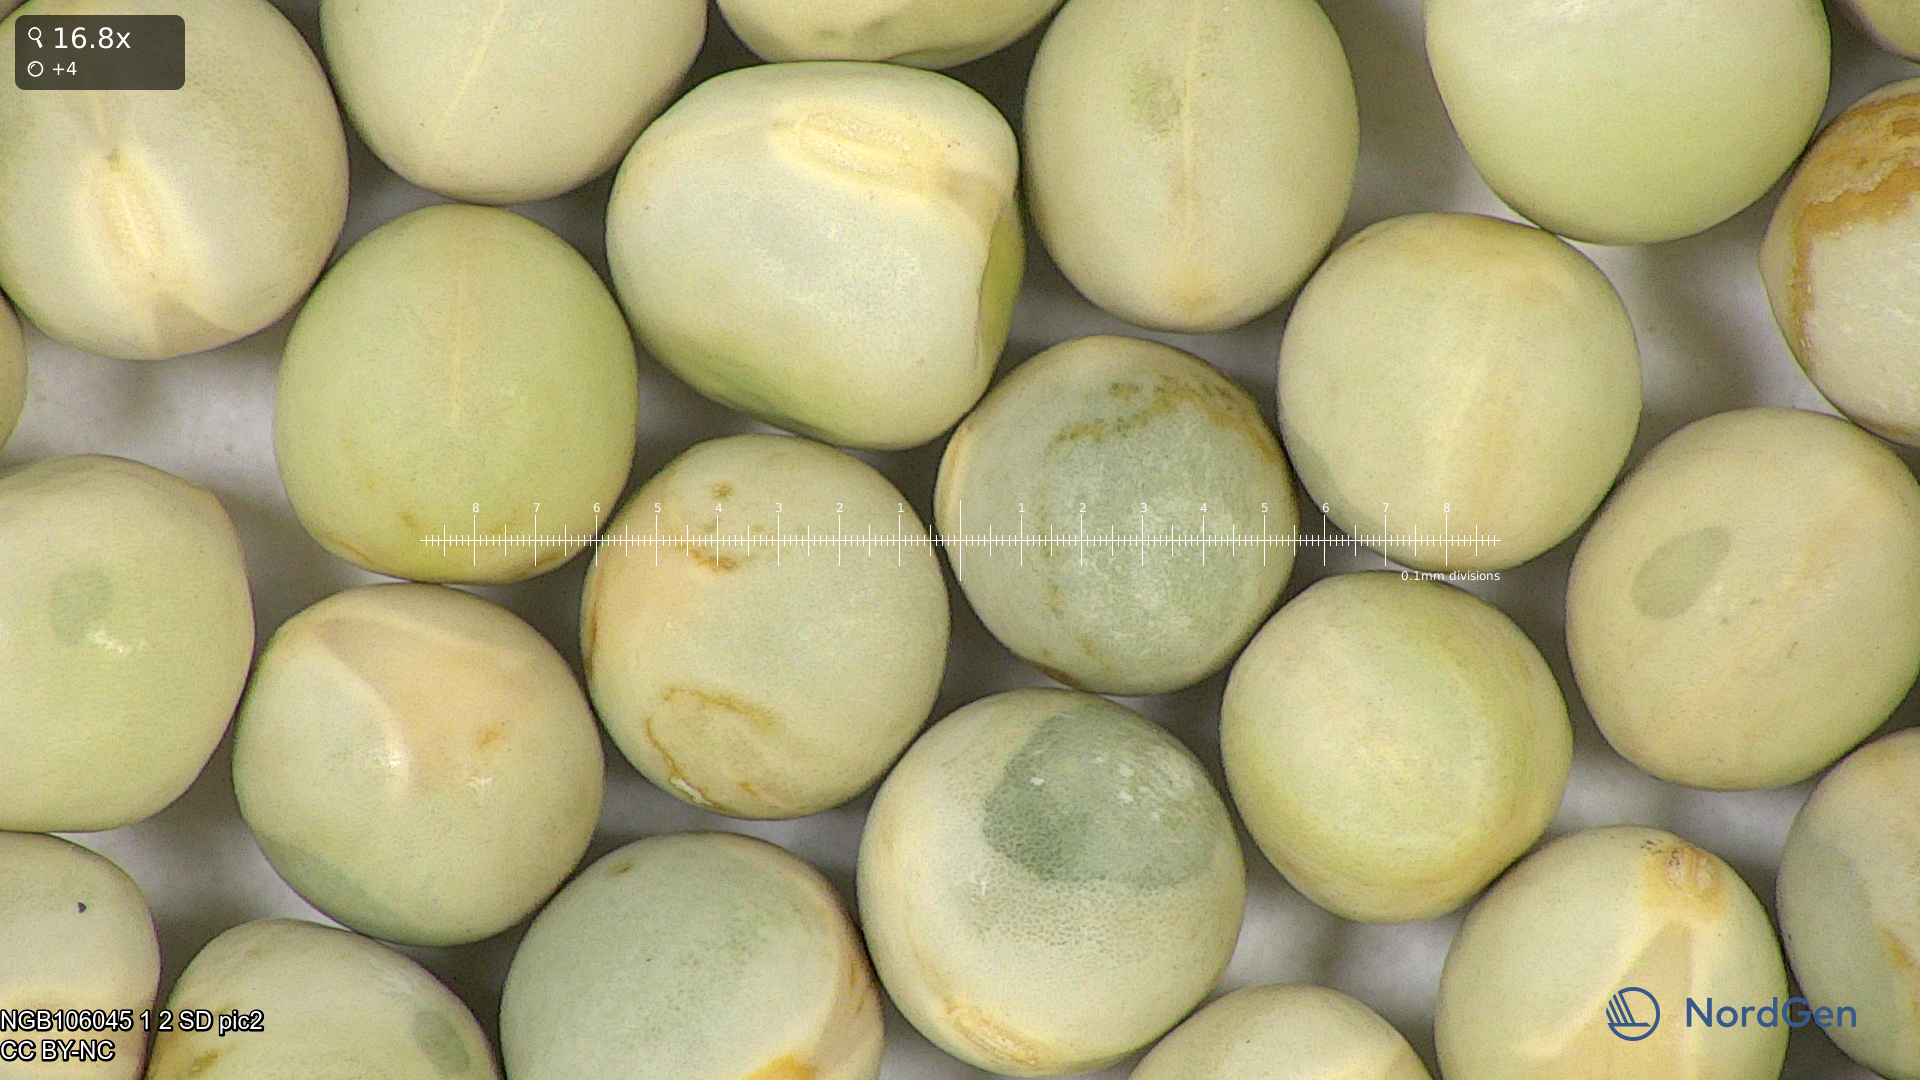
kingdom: Plantae
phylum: Tracheophyta
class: Magnoliopsida
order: Fabales
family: Fabaceae
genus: Lathyrus
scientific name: Lathyrus oleraceus
